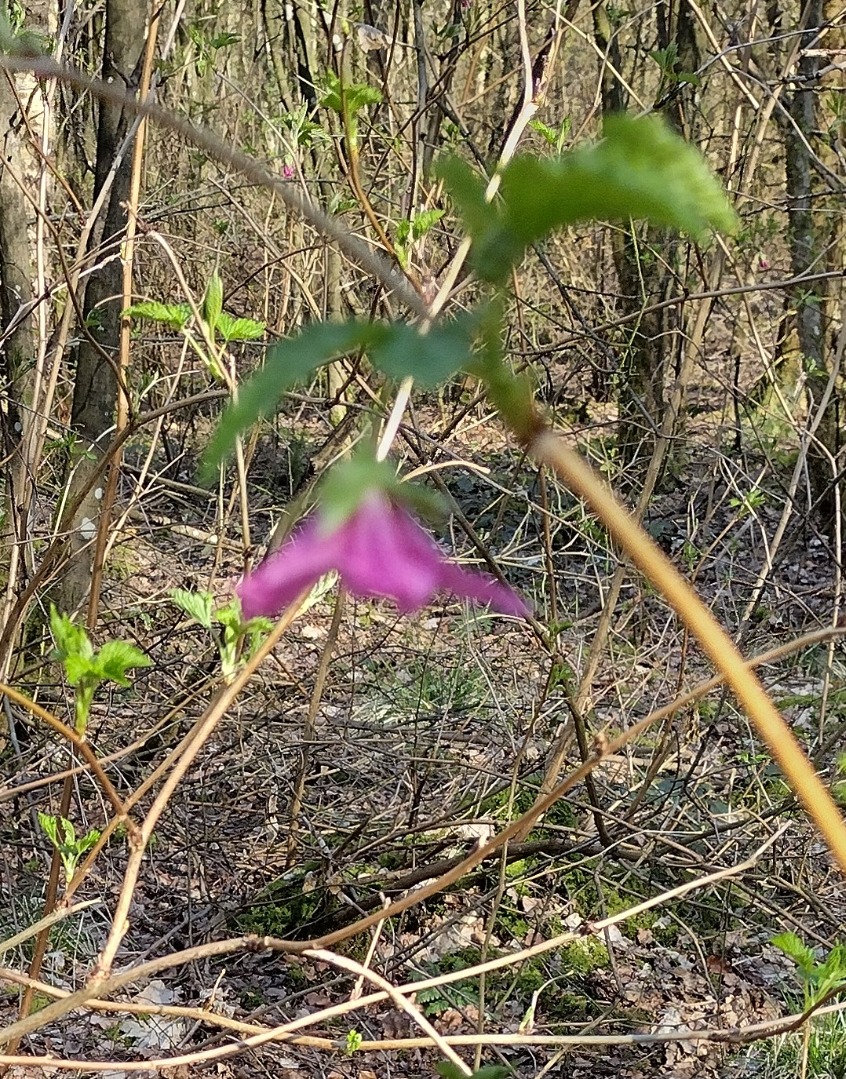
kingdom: Plantae
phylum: Tracheophyta
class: Magnoliopsida
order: Rosales
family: Rosaceae
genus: Rubus
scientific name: Rubus spectabilis
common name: Laksebær
